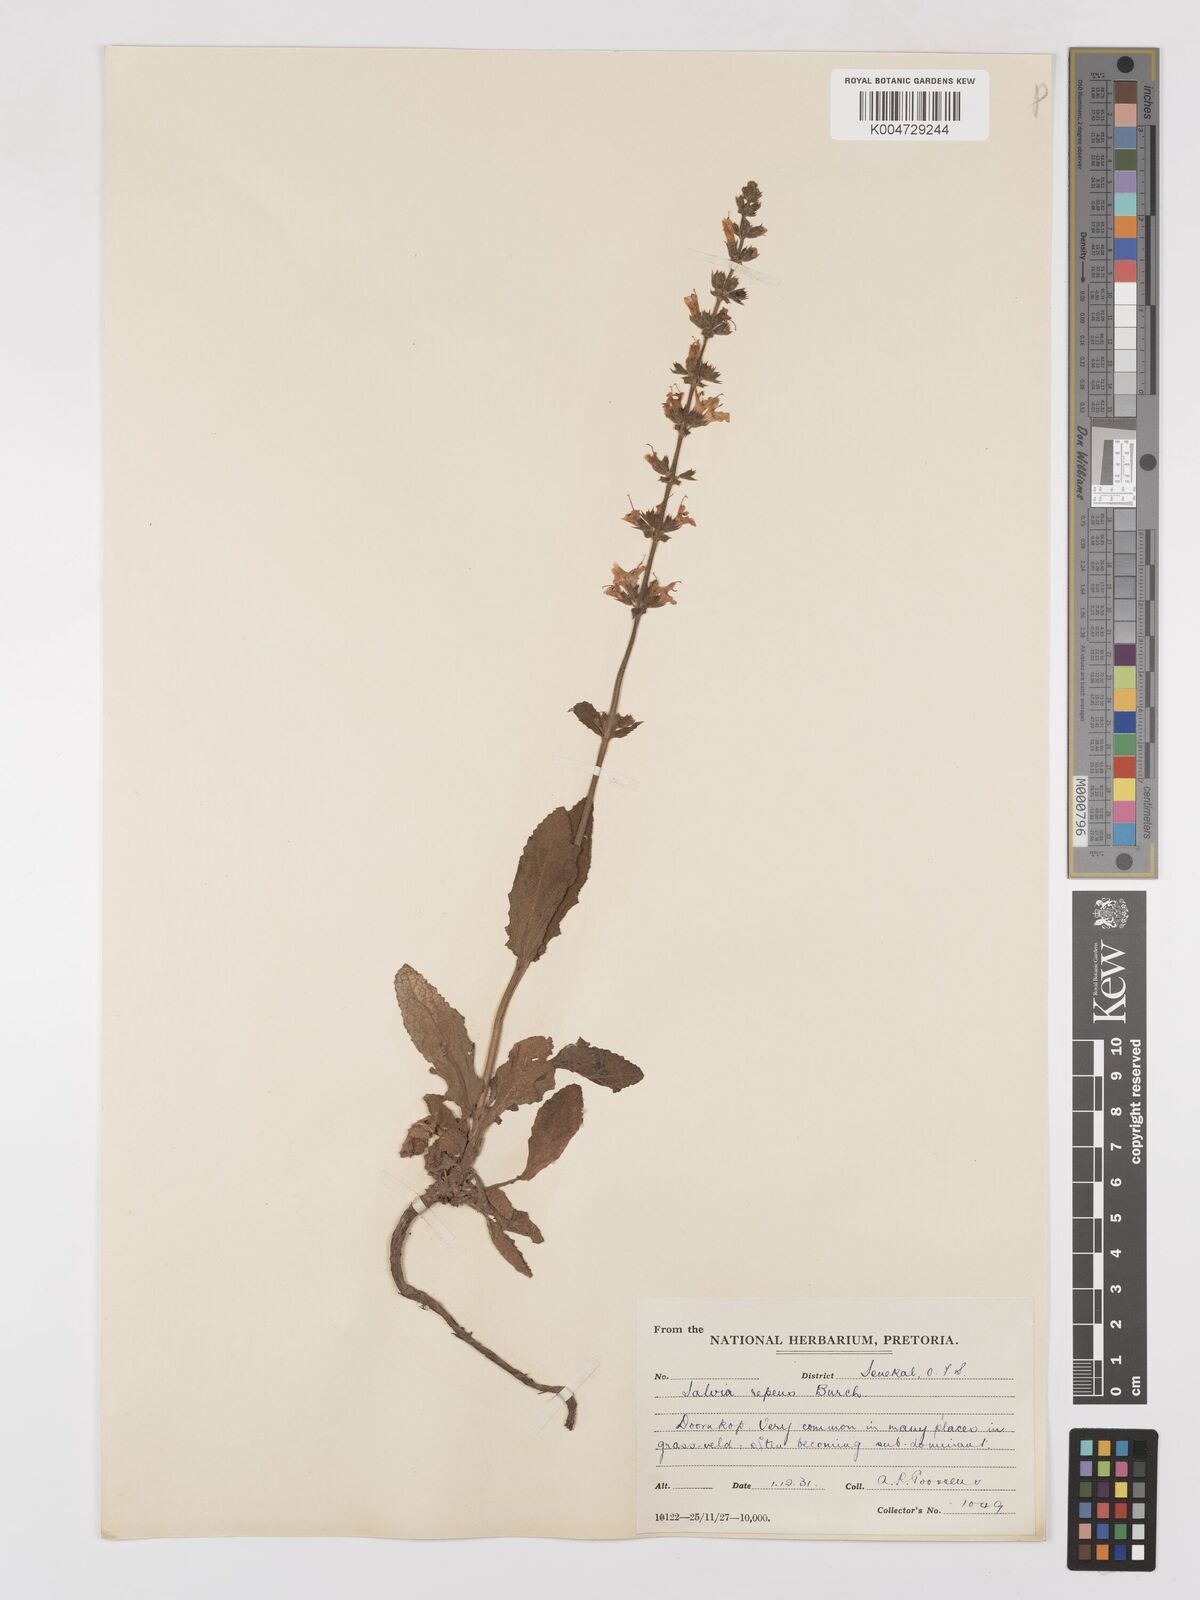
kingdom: Plantae
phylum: Tracheophyta
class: Magnoliopsida
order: Lamiales
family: Lamiaceae
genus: Salvia
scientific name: Salvia repens
